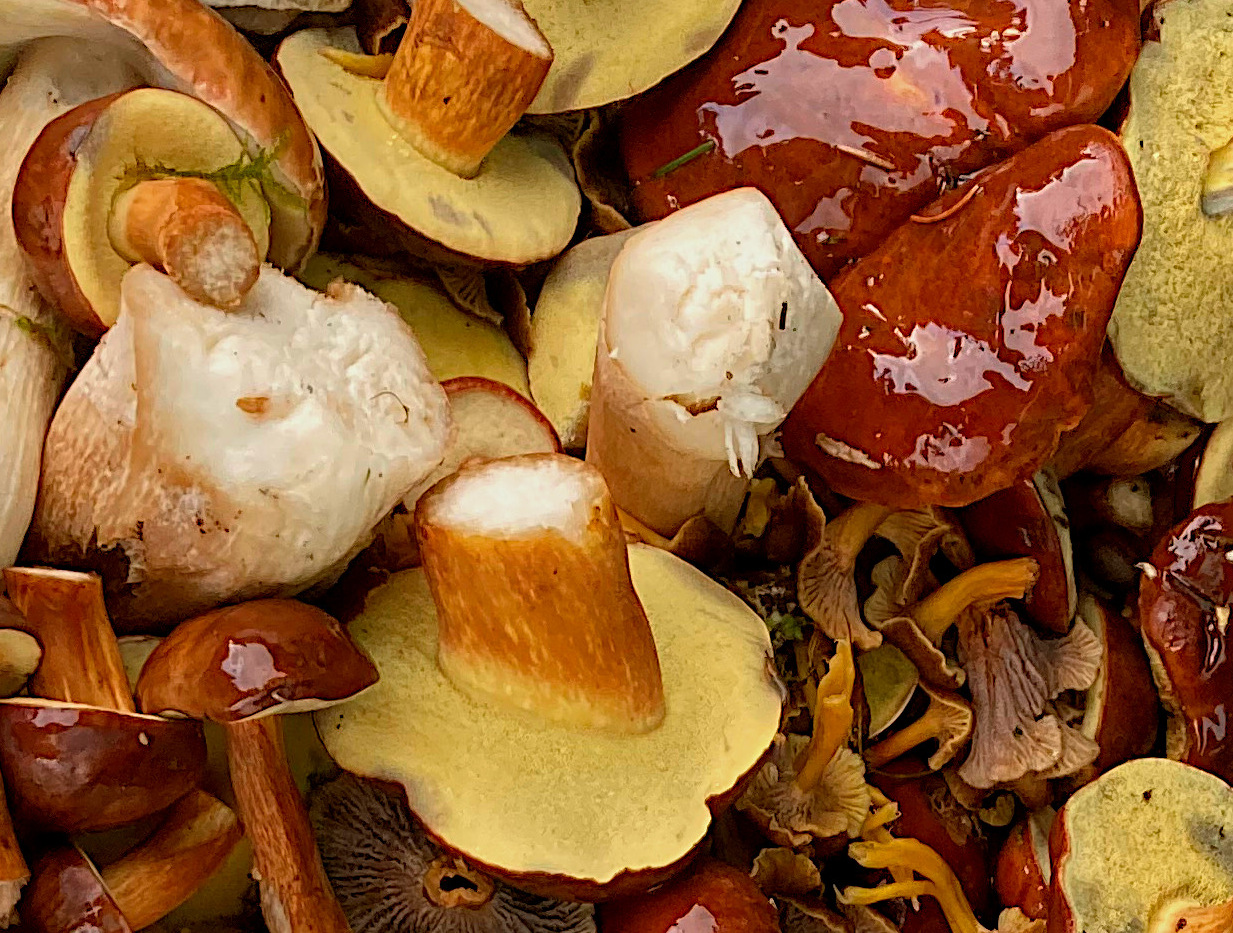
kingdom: Fungi
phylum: Basidiomycota
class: Agaricomycetes
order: Boletales
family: Boletaceae
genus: Imleria
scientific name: Imleria badia
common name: brunstokket rørhat
